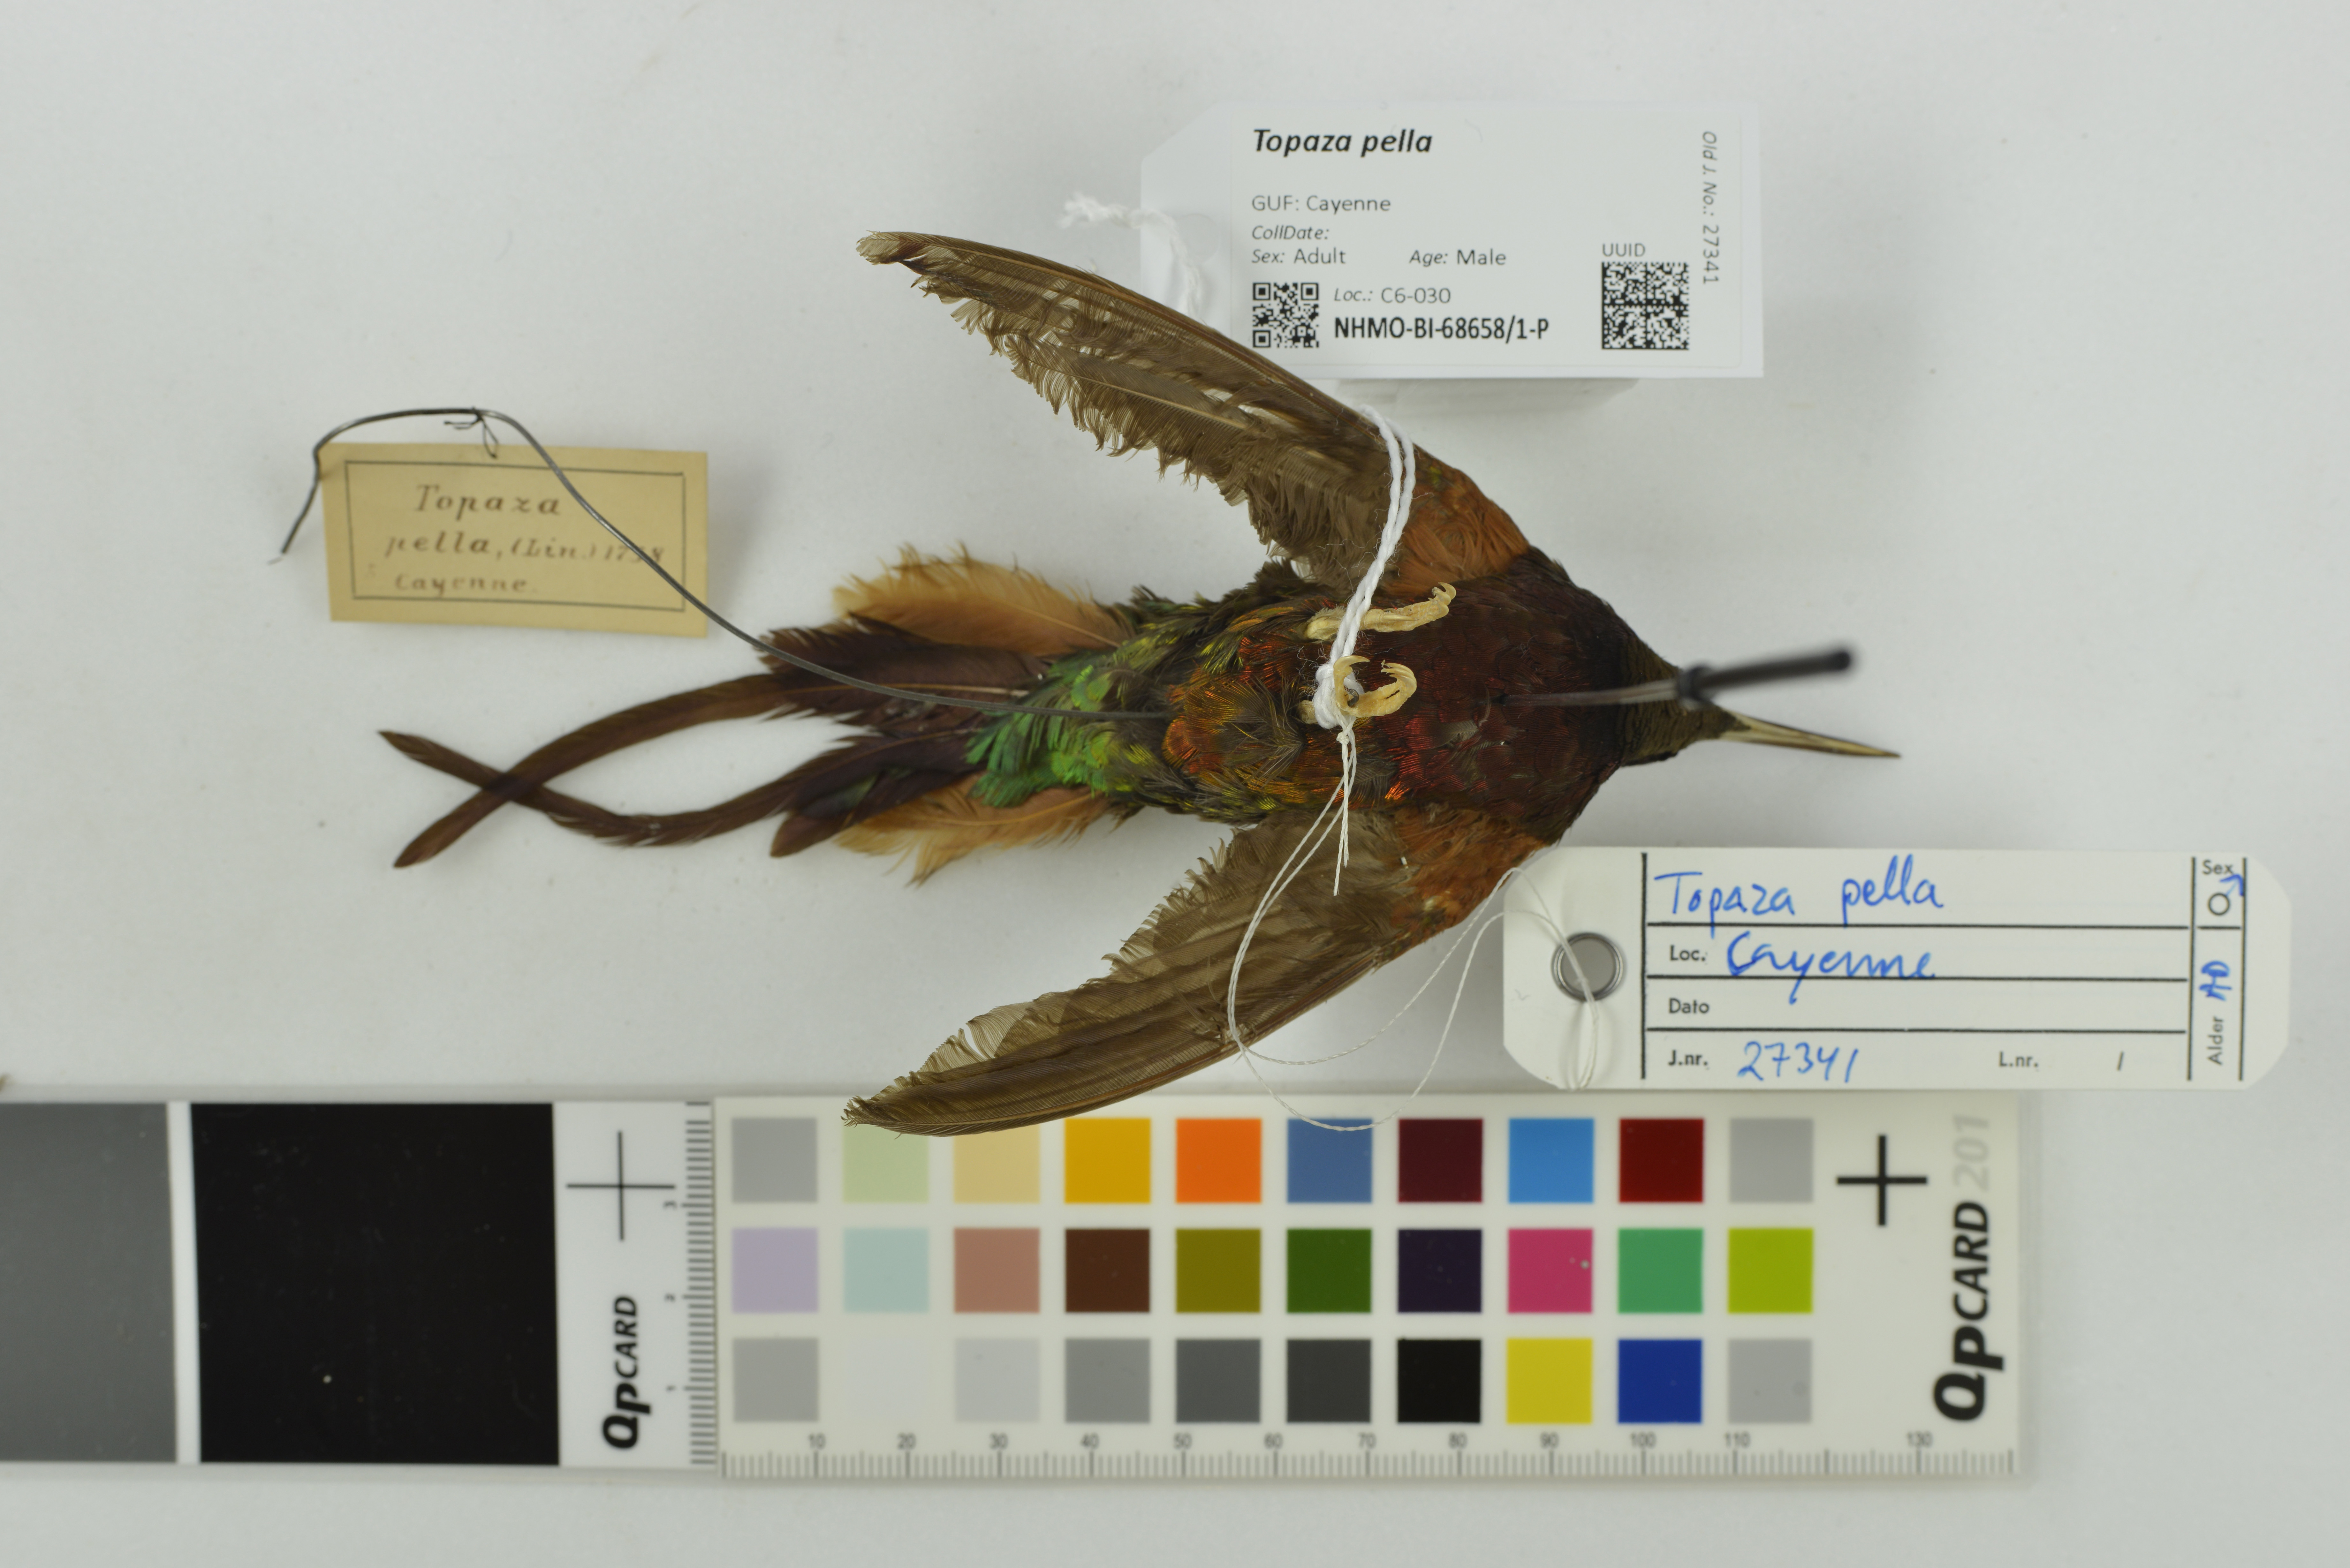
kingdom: Animalia
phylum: Chordata
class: Aves
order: Apodiformes
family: Trochilidae
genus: Topaza
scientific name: Topaza pella
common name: Crimson topaz
